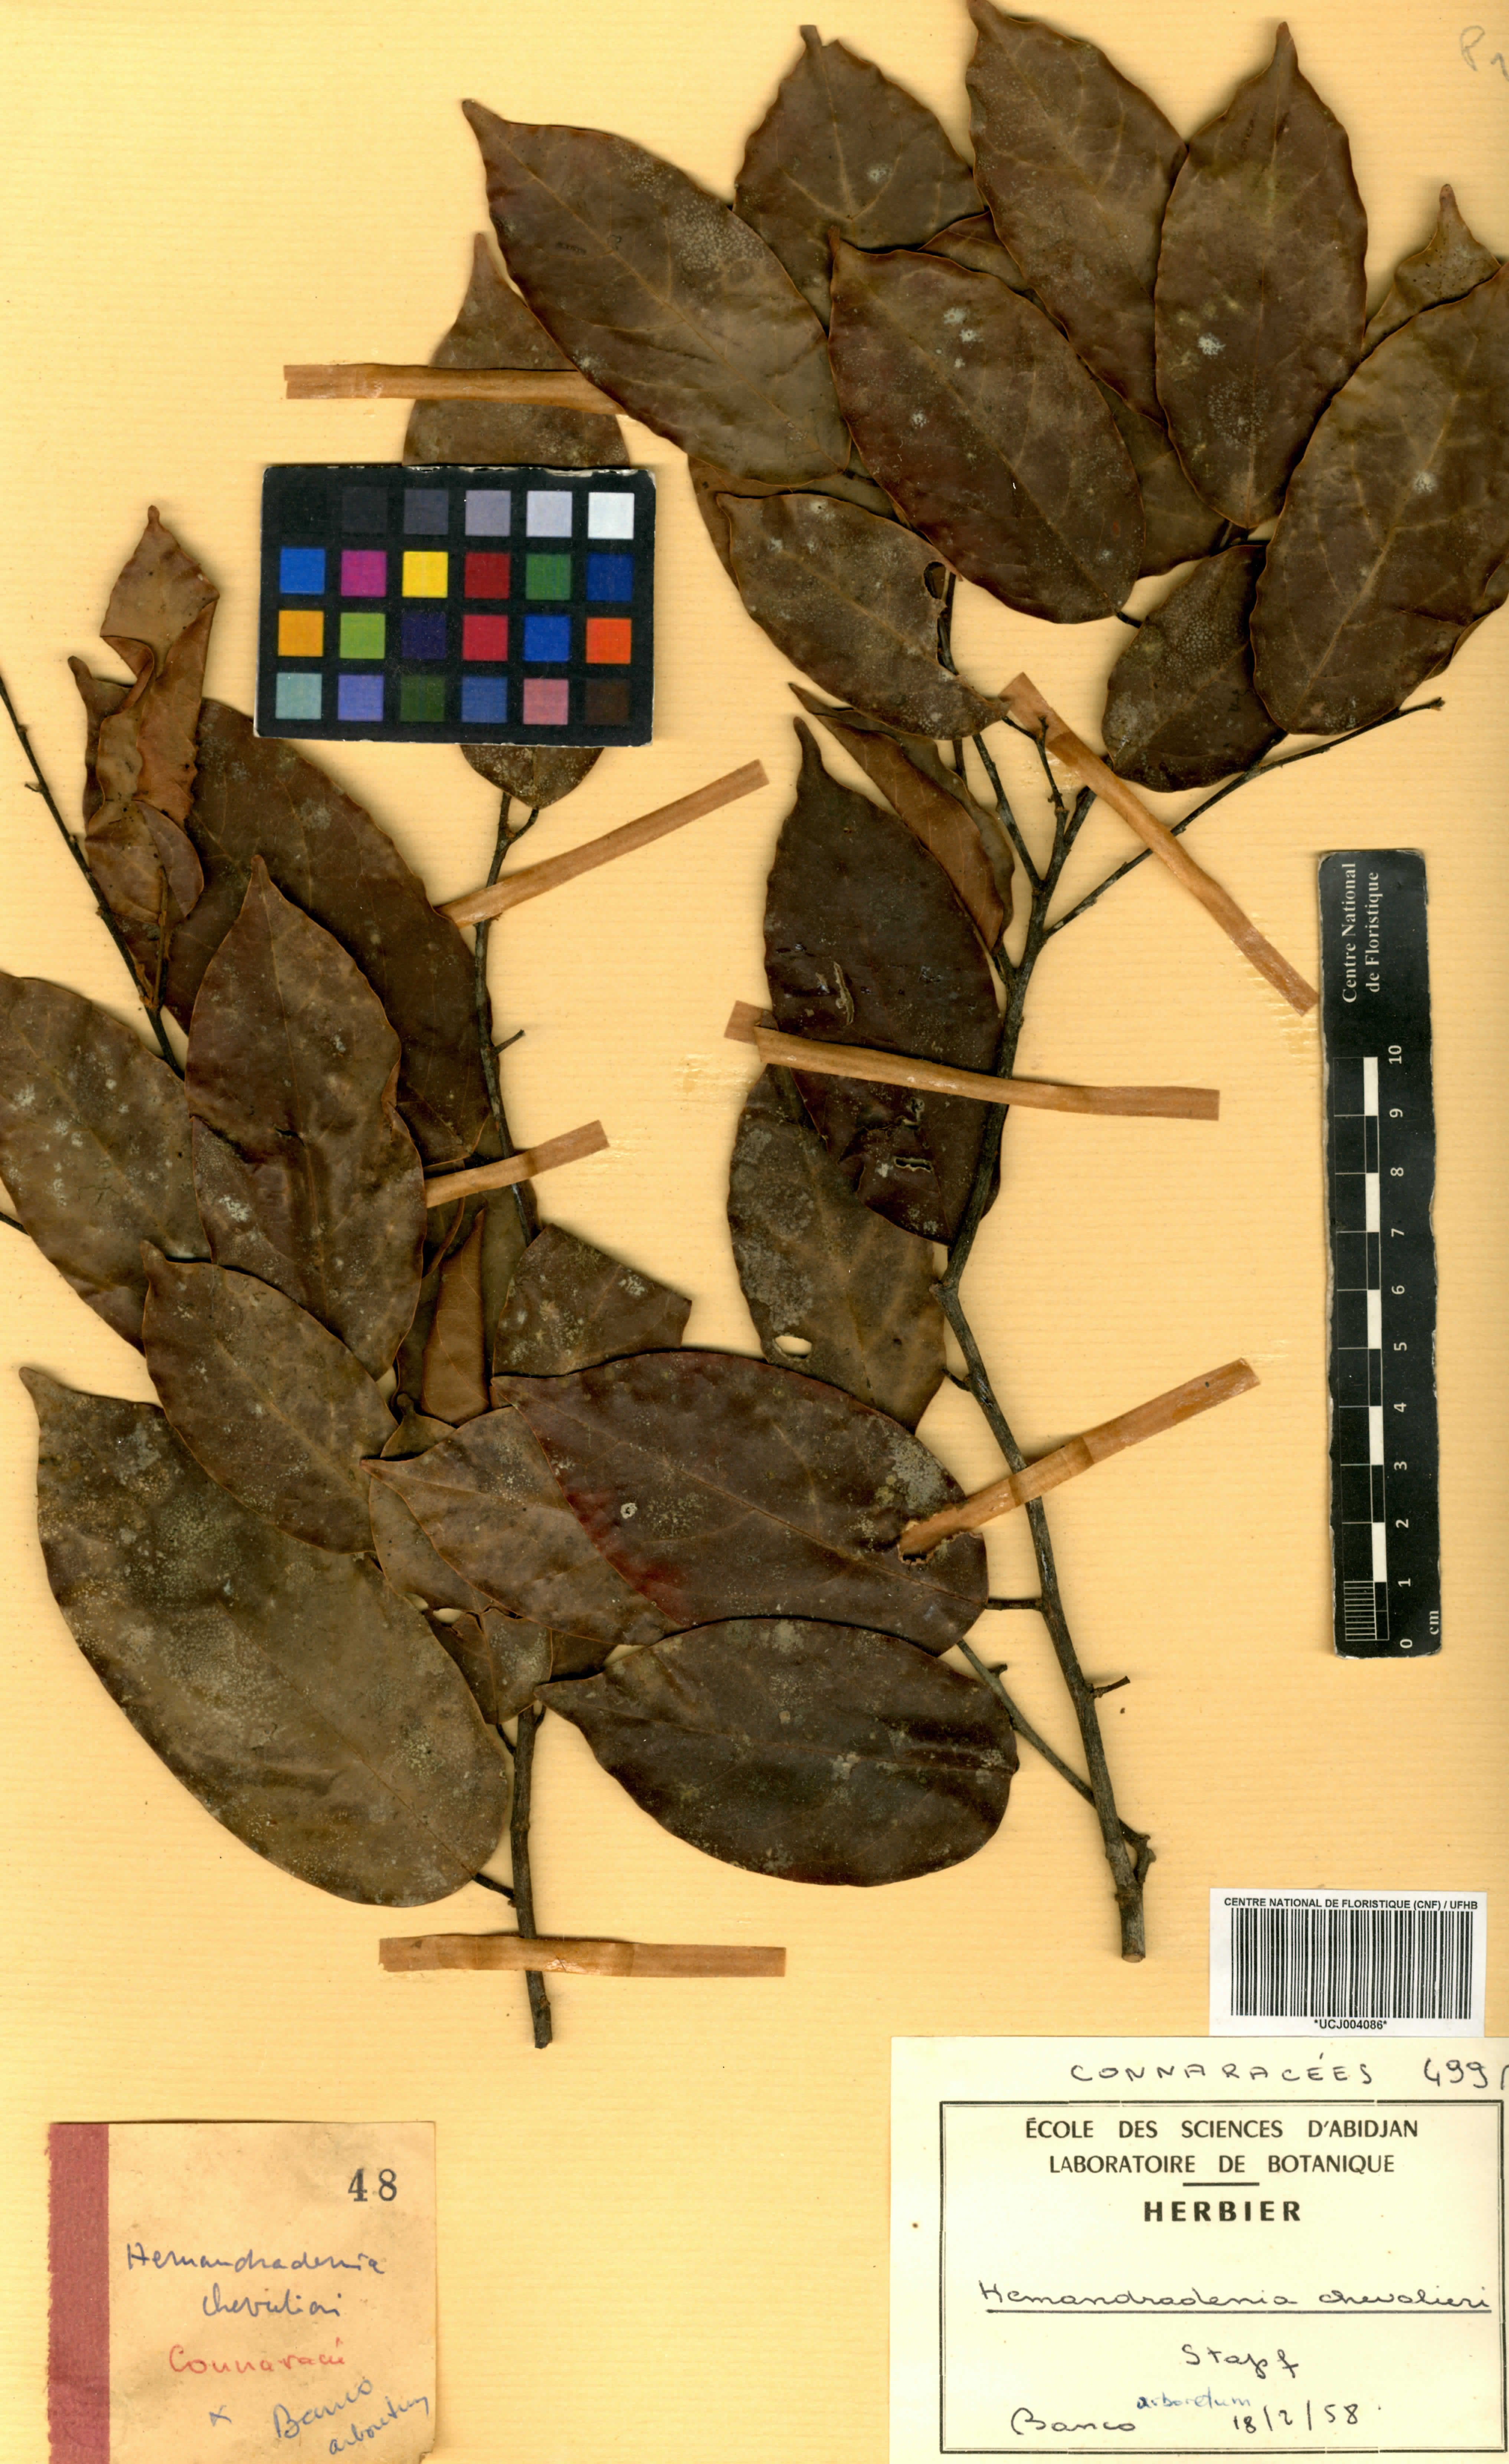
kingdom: Plantae
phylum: Tracheophyta
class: Magnoliopsida
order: Oxalidales
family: Connaraceae
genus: Hemandradenia
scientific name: Hemandradenia chevalieri
